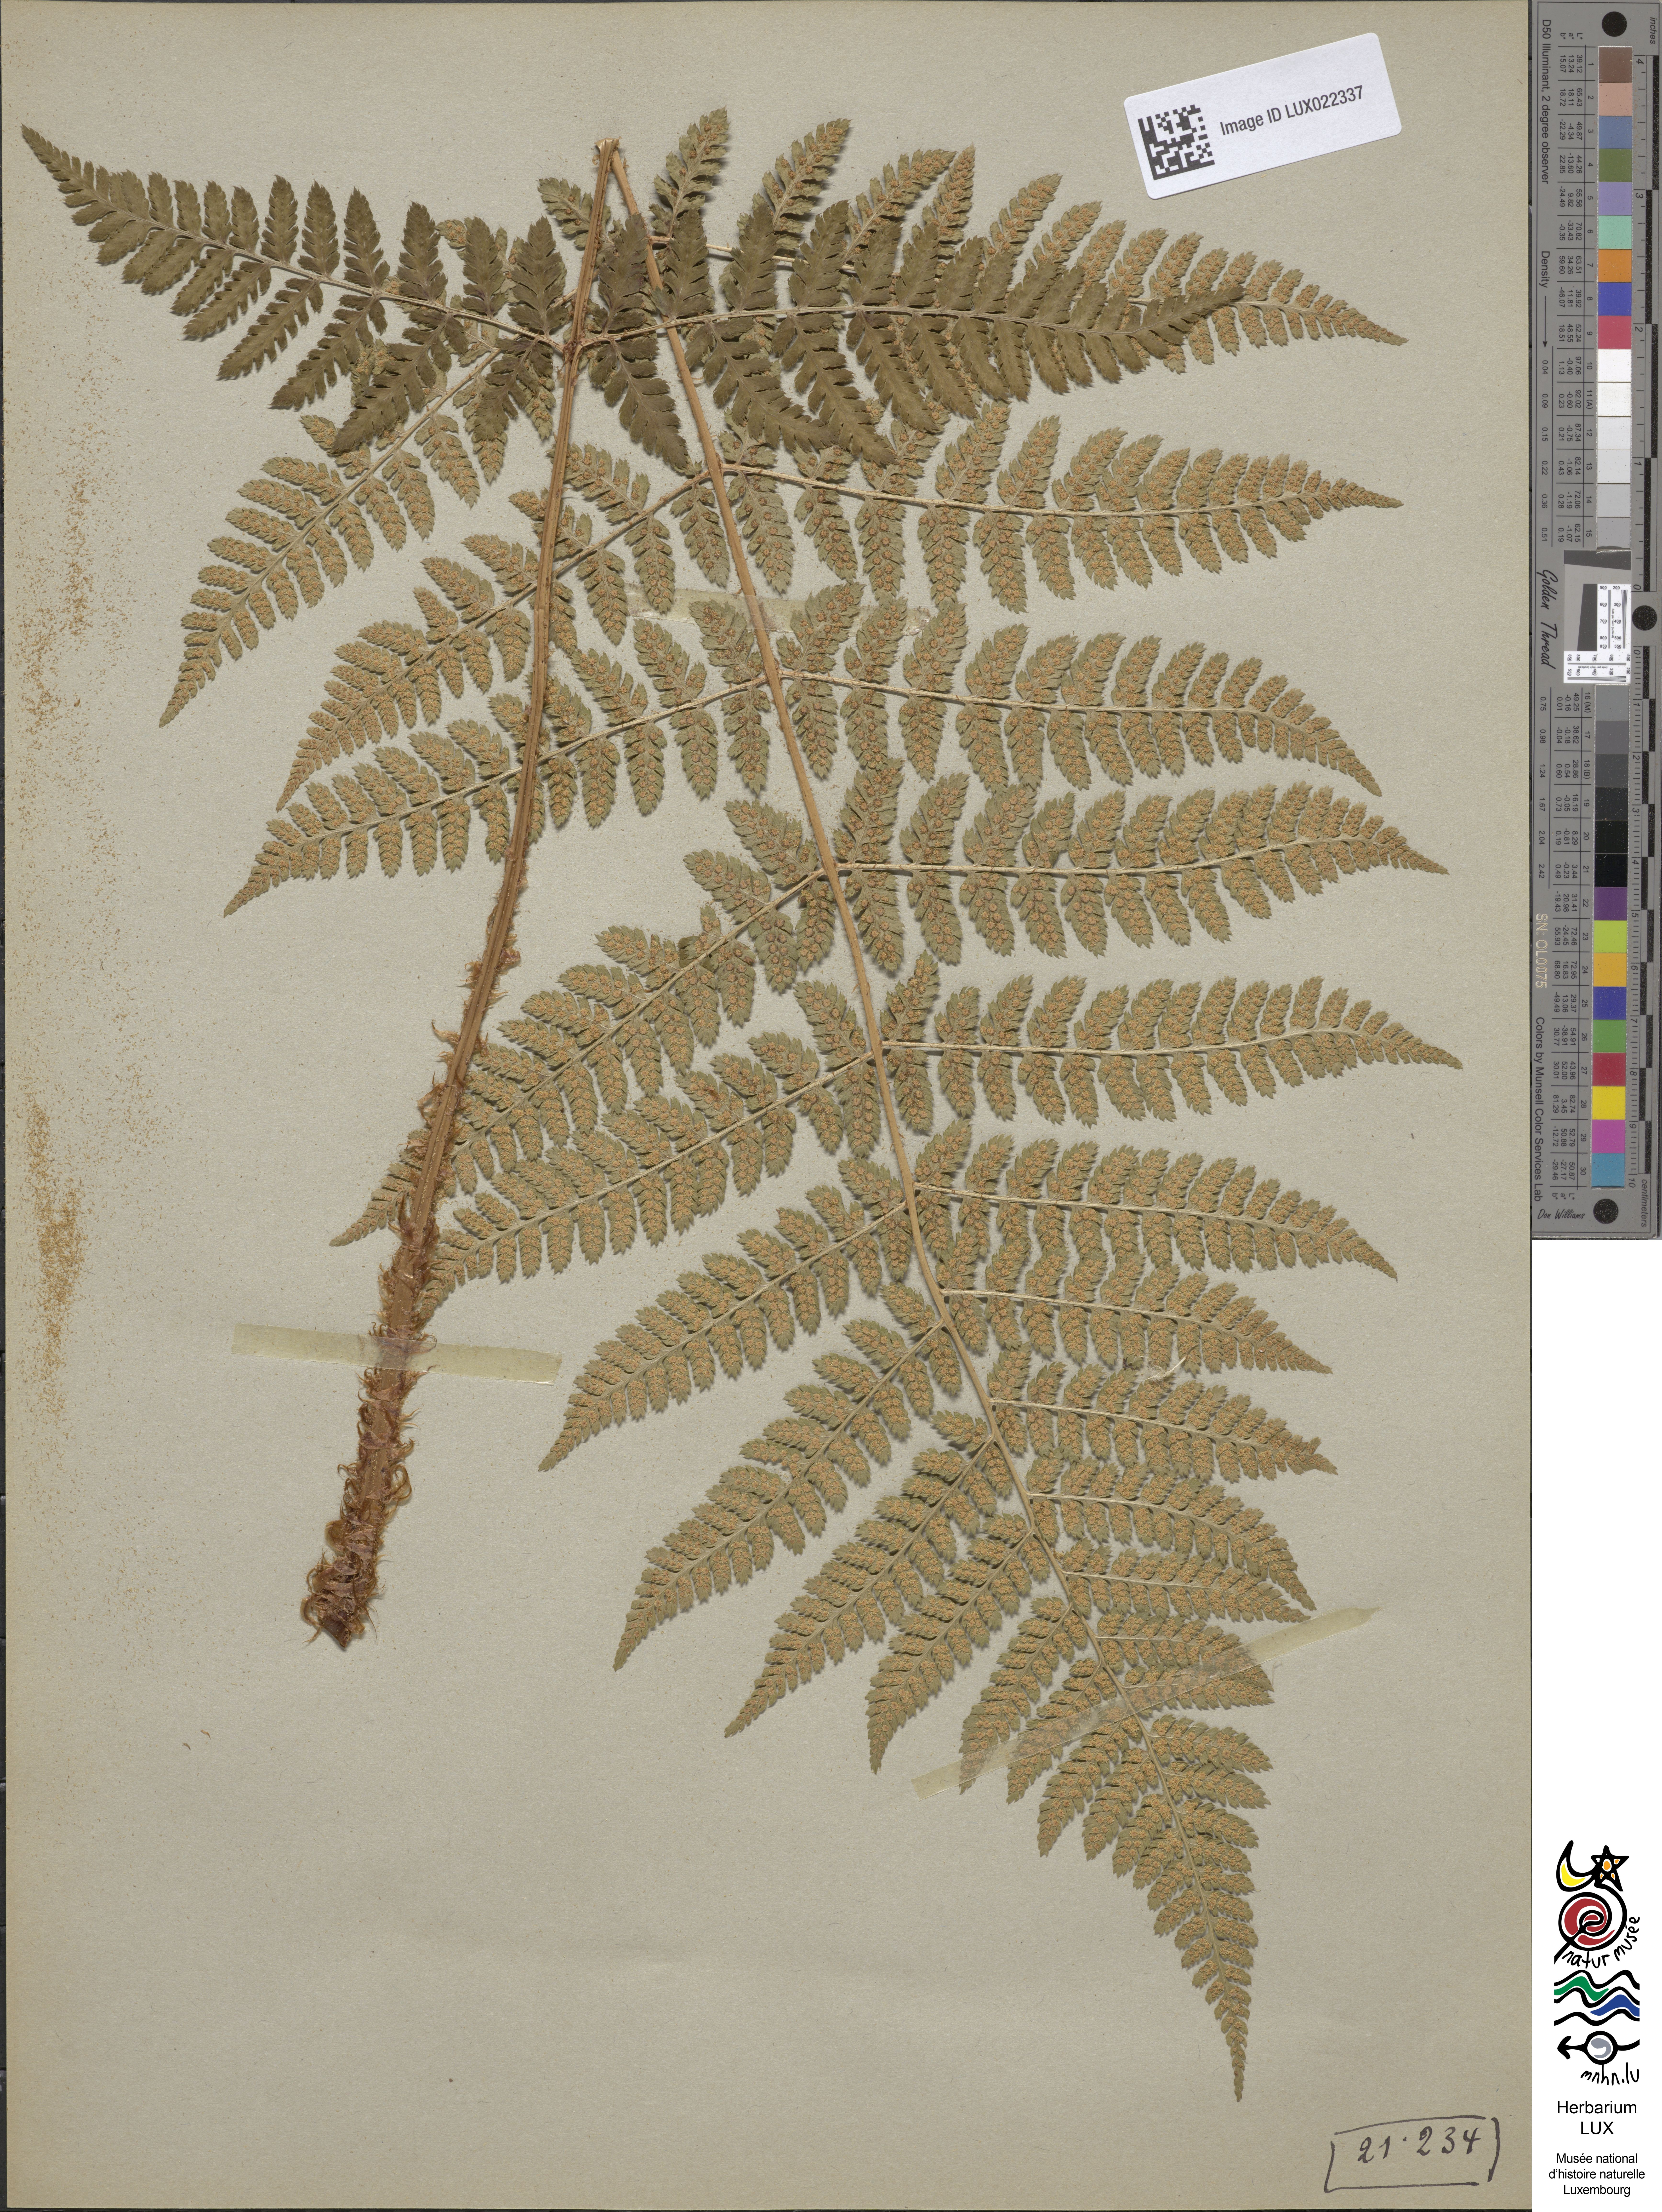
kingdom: Plantae
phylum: Tracheophyta
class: Polypodiopsida
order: Polypodiales
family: Dryopteridaceae
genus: Dryopteris
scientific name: Dryopteris dilatata
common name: Broad buckler-fern
